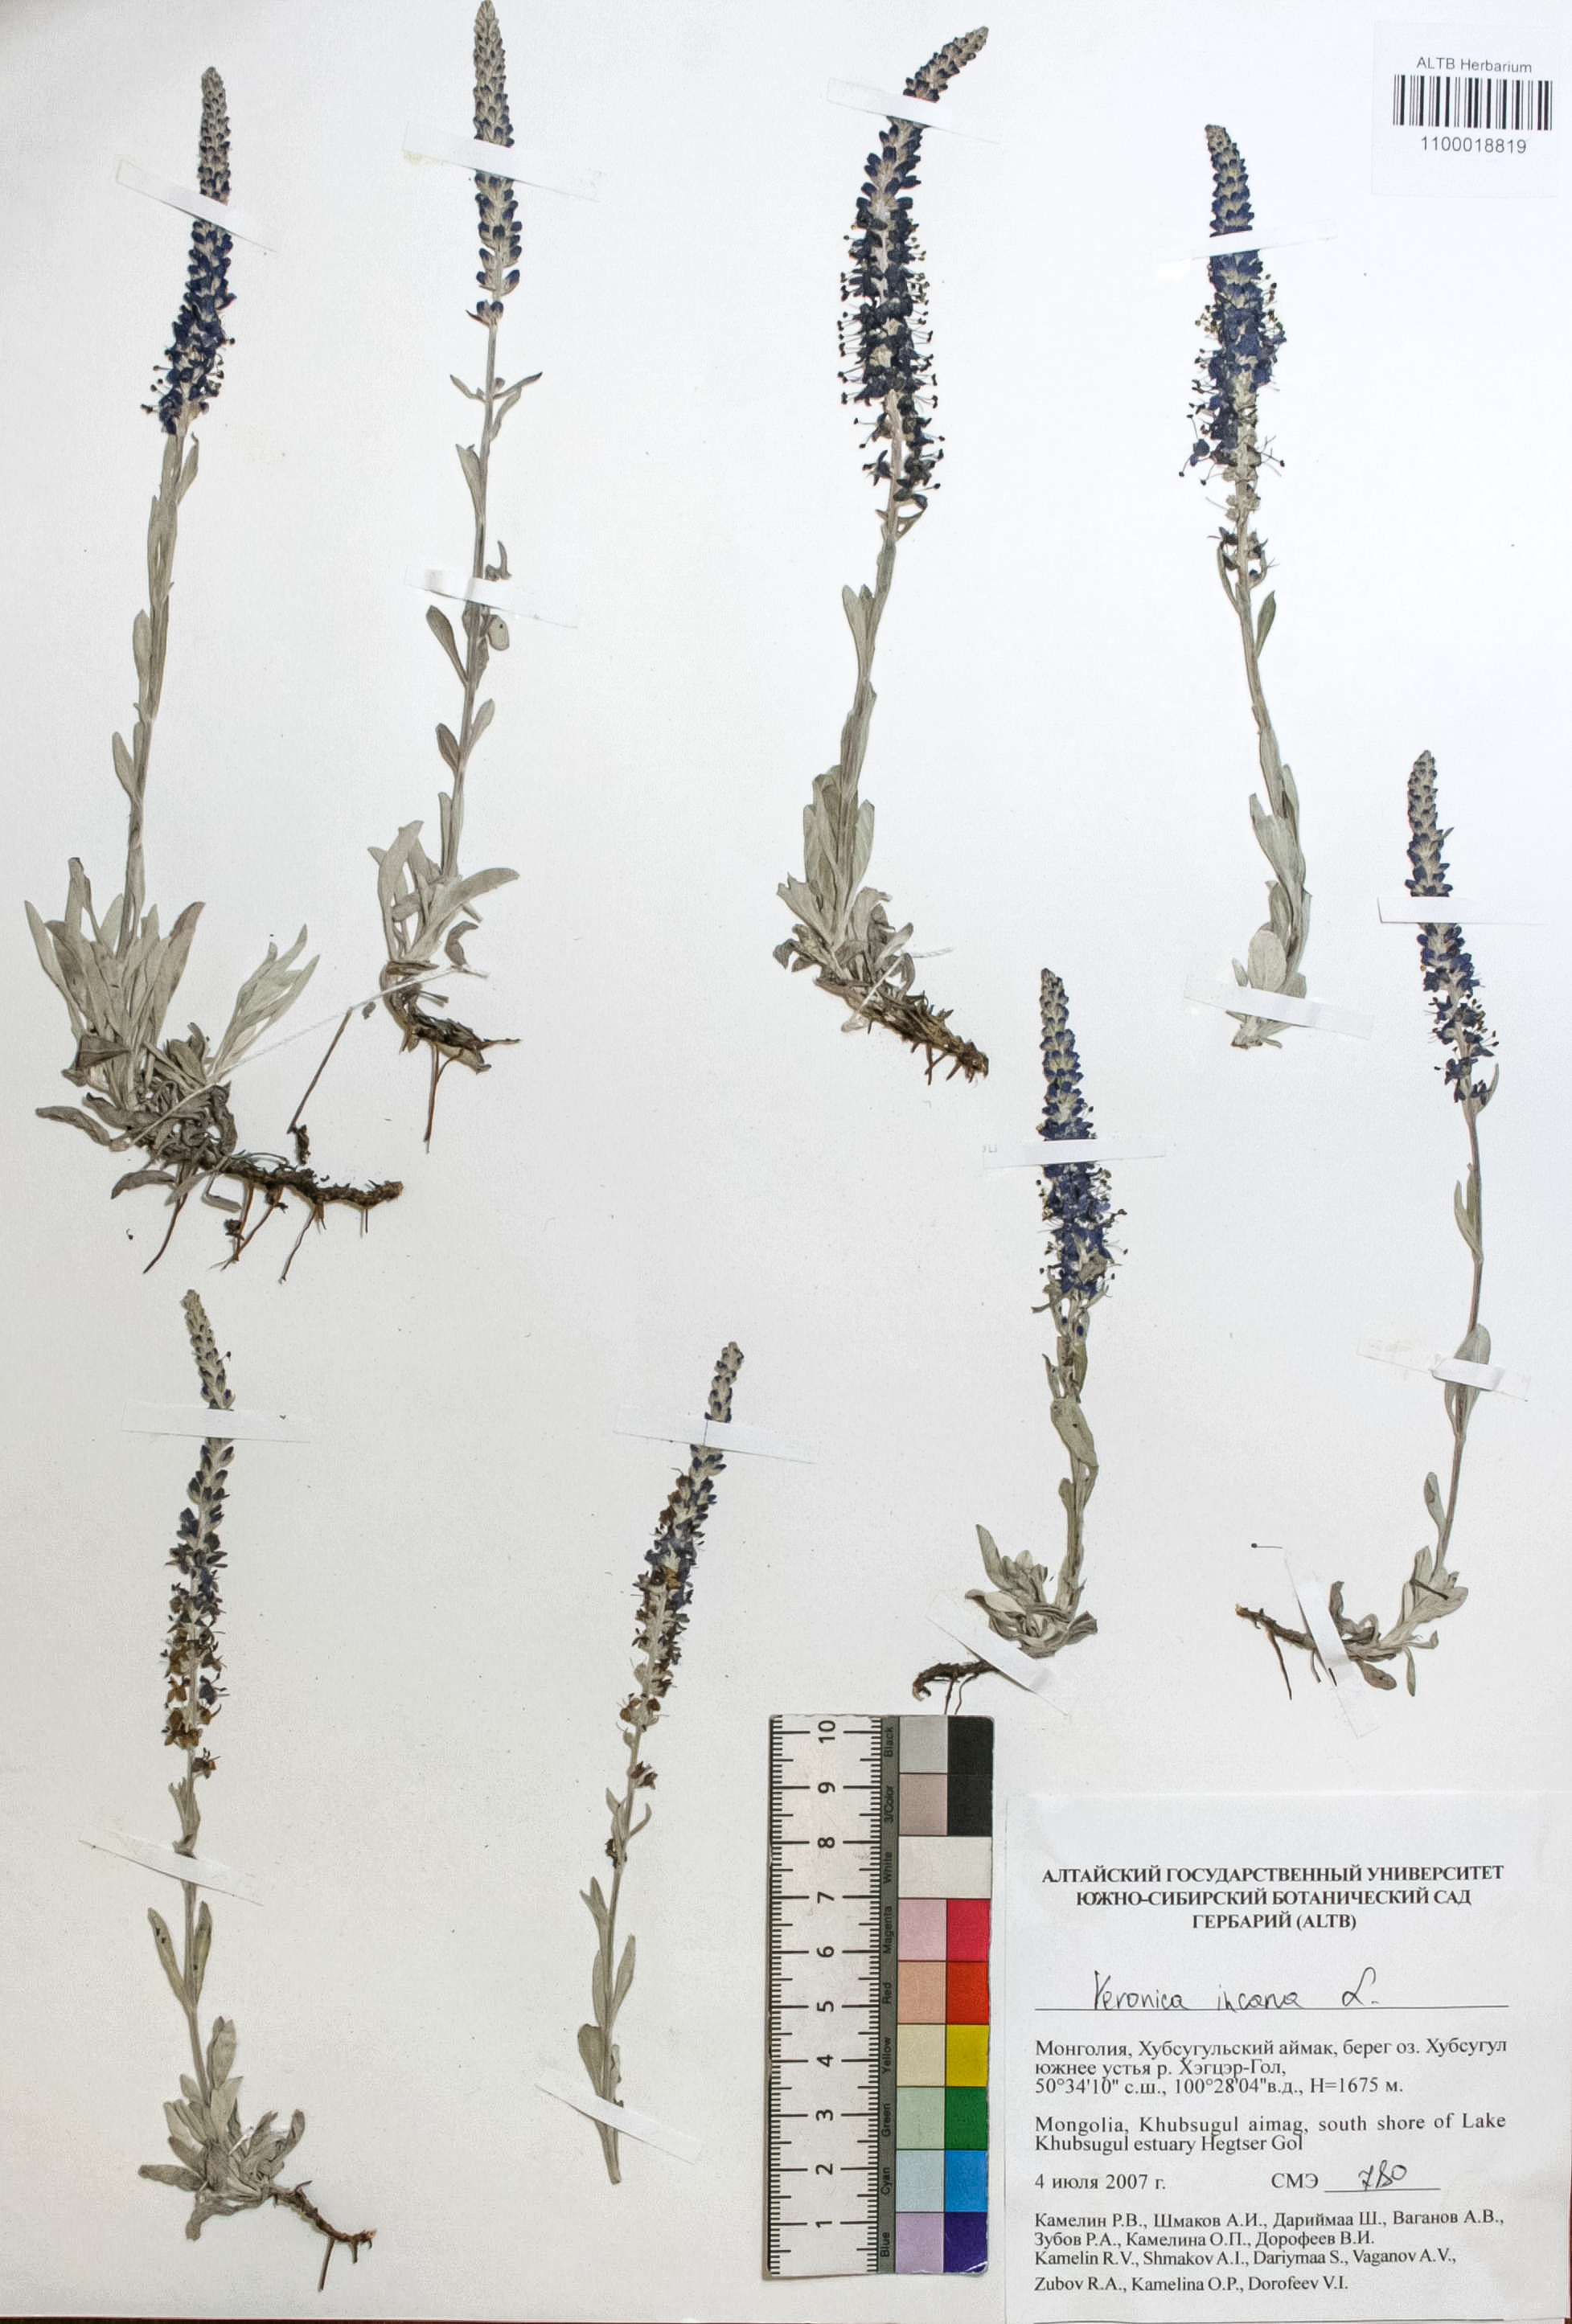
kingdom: Plantae
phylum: Tracheophyta
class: Magnoliopsida
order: Lamiales
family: Plantaginaceae
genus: Veronica
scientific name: Veronica incana
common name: Silver speedwell
